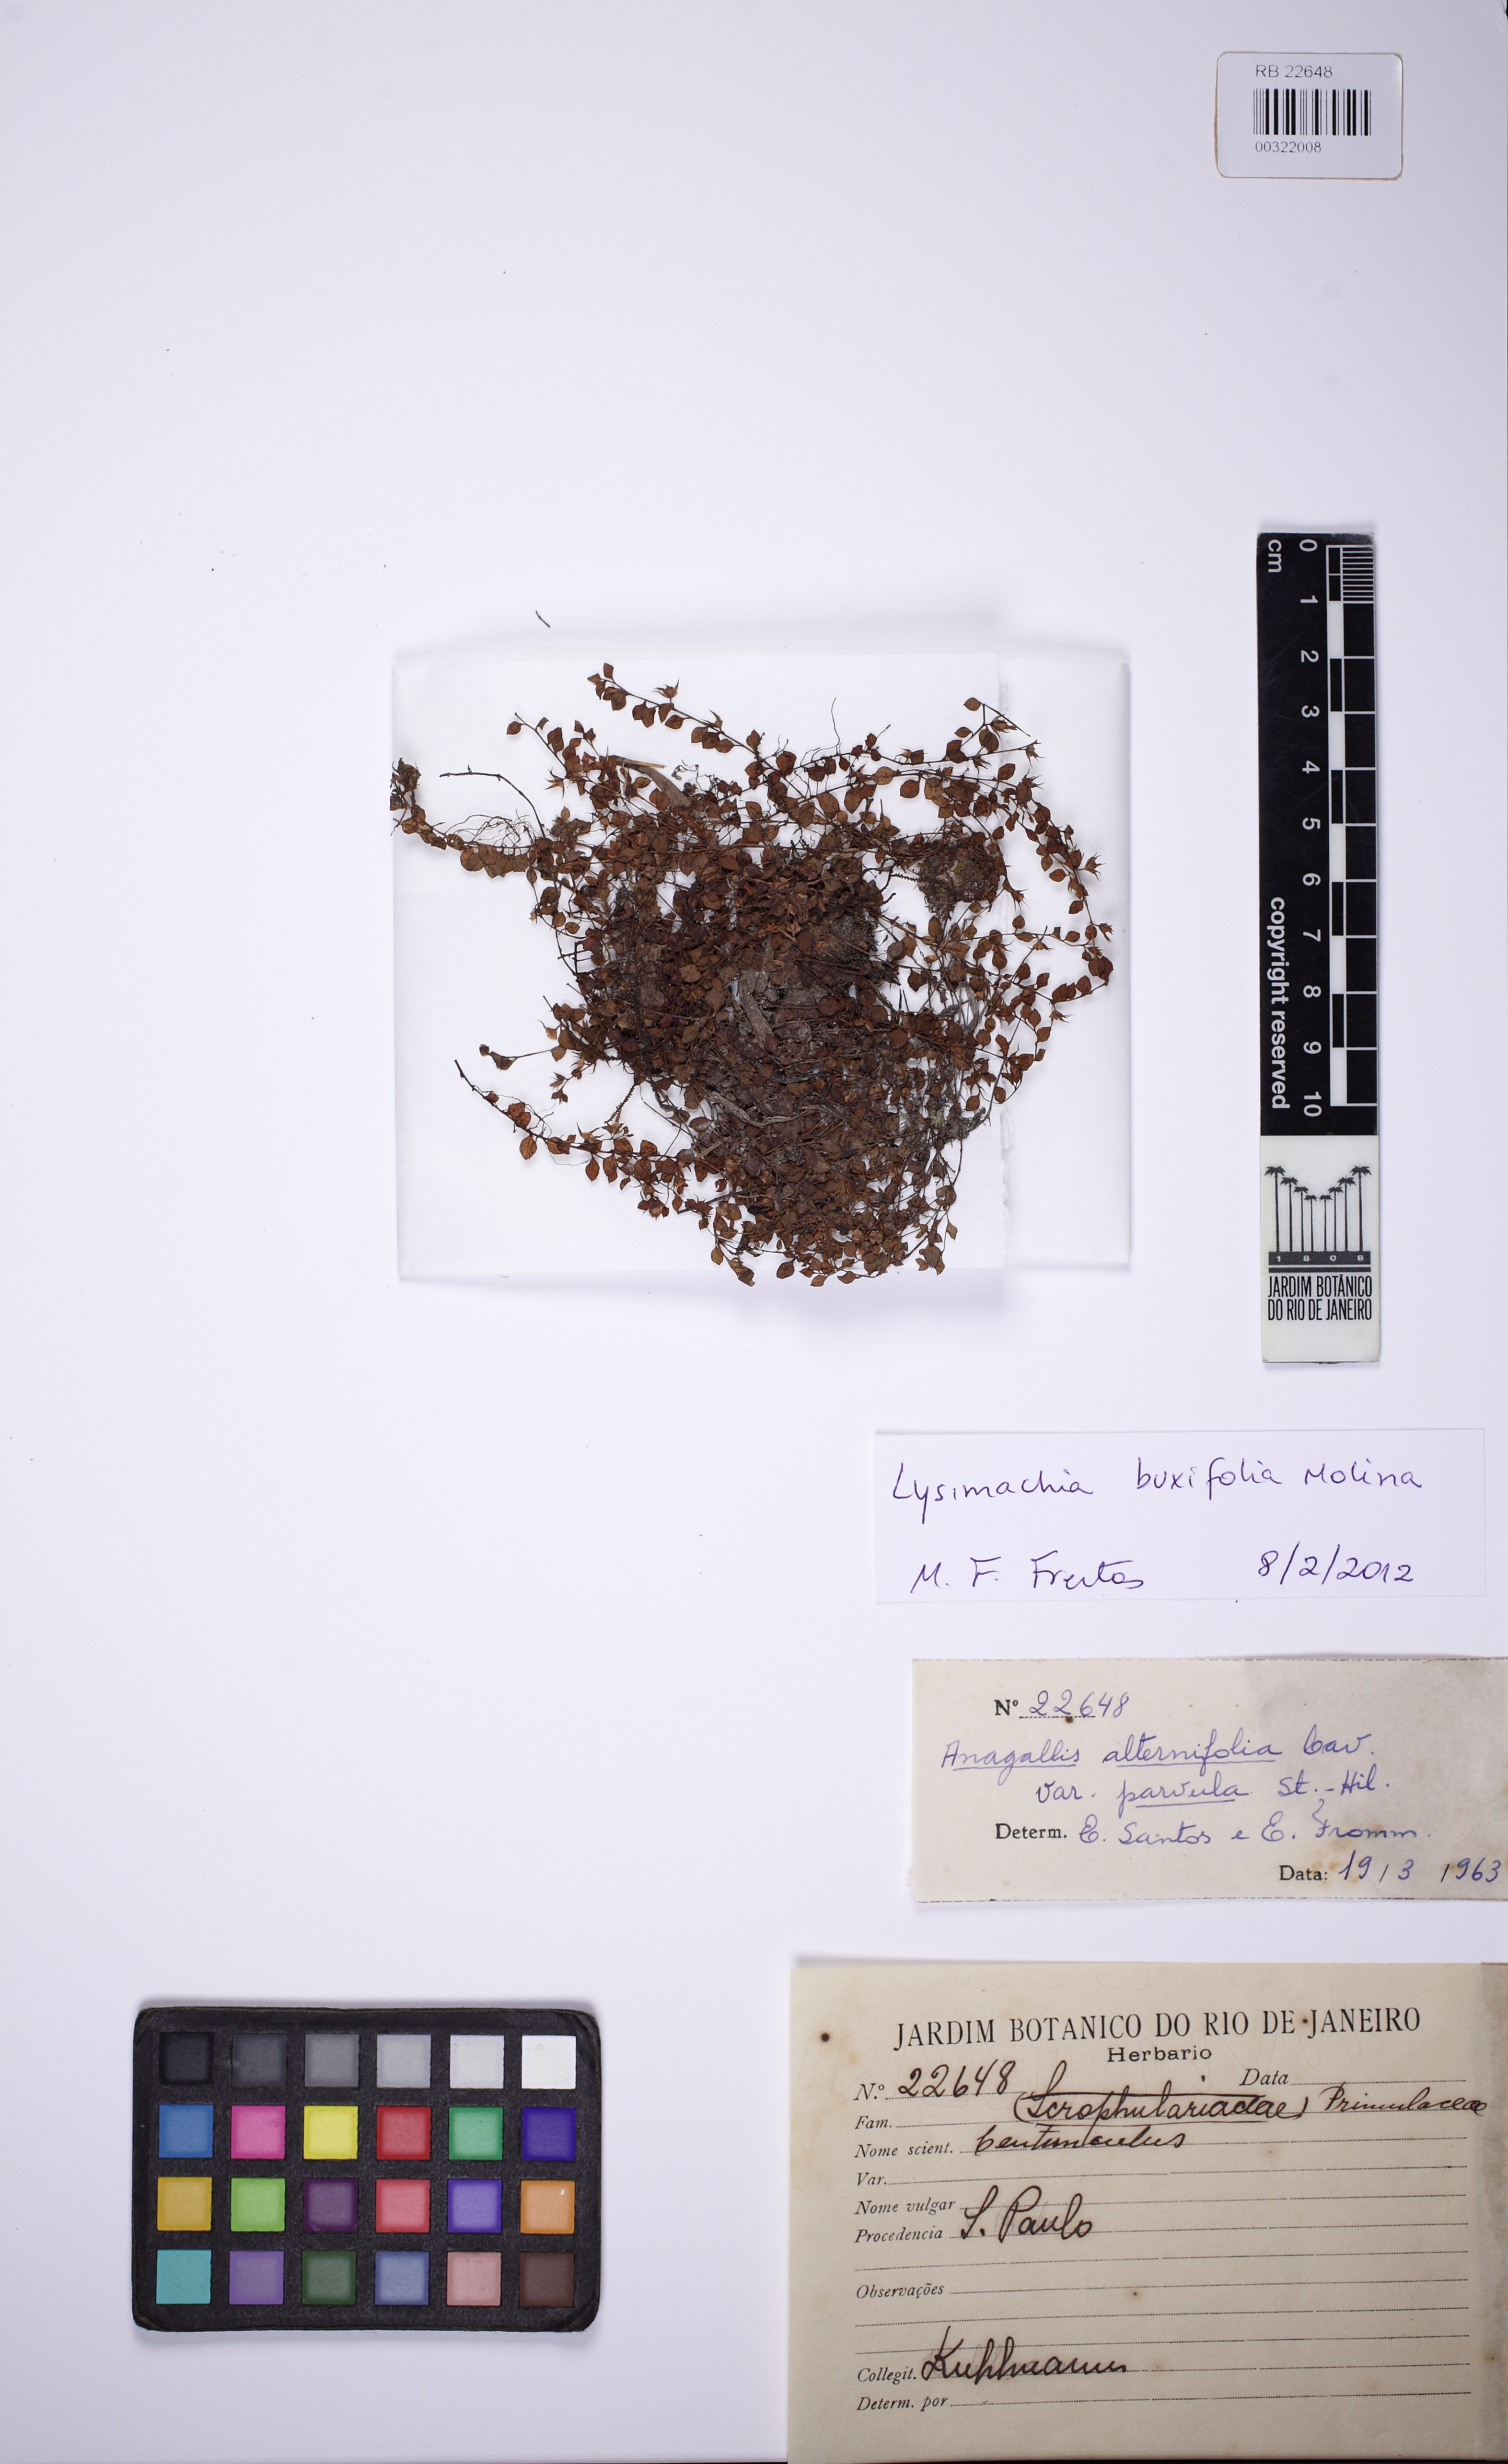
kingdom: Plantae
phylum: Tracheophyta
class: Magnoliopsida
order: Ericales
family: Primulaceae
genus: Lysimachia
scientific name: Lysimachia amoena
